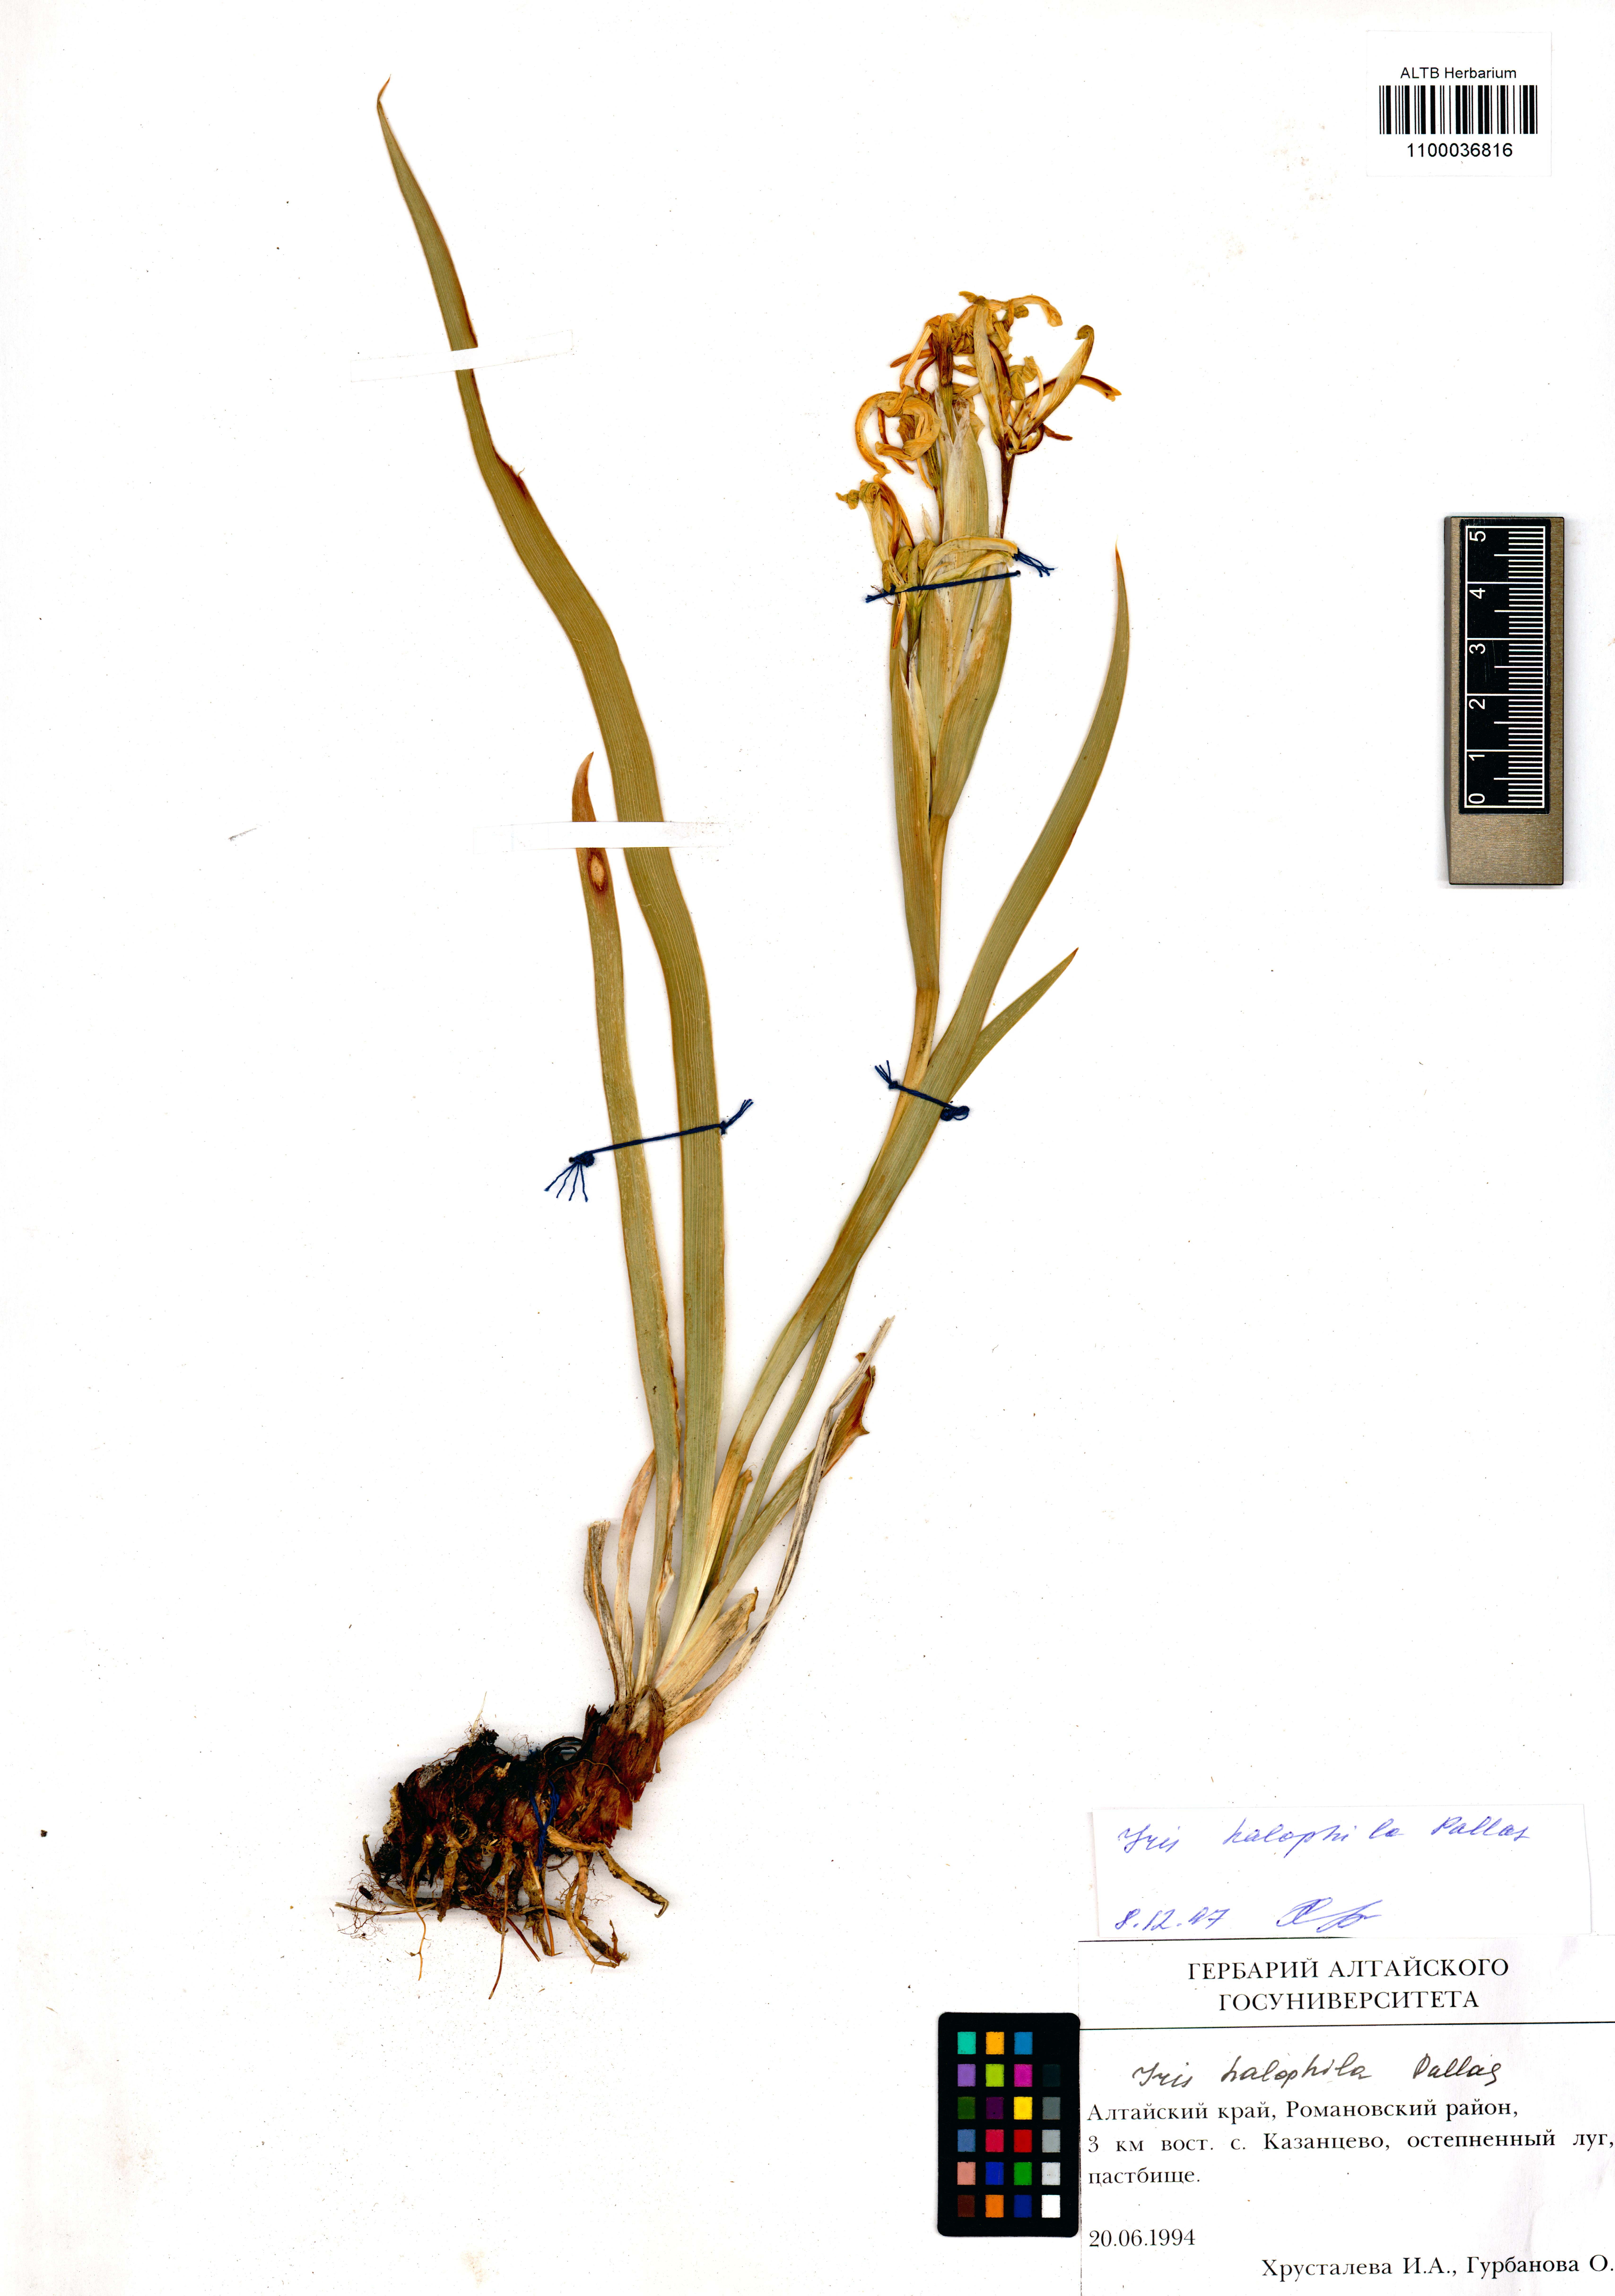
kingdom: Plantae
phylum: Tracheophyta
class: Liliopsida
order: Asparagales
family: Iridaceae
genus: Iris
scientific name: Iris halophila
